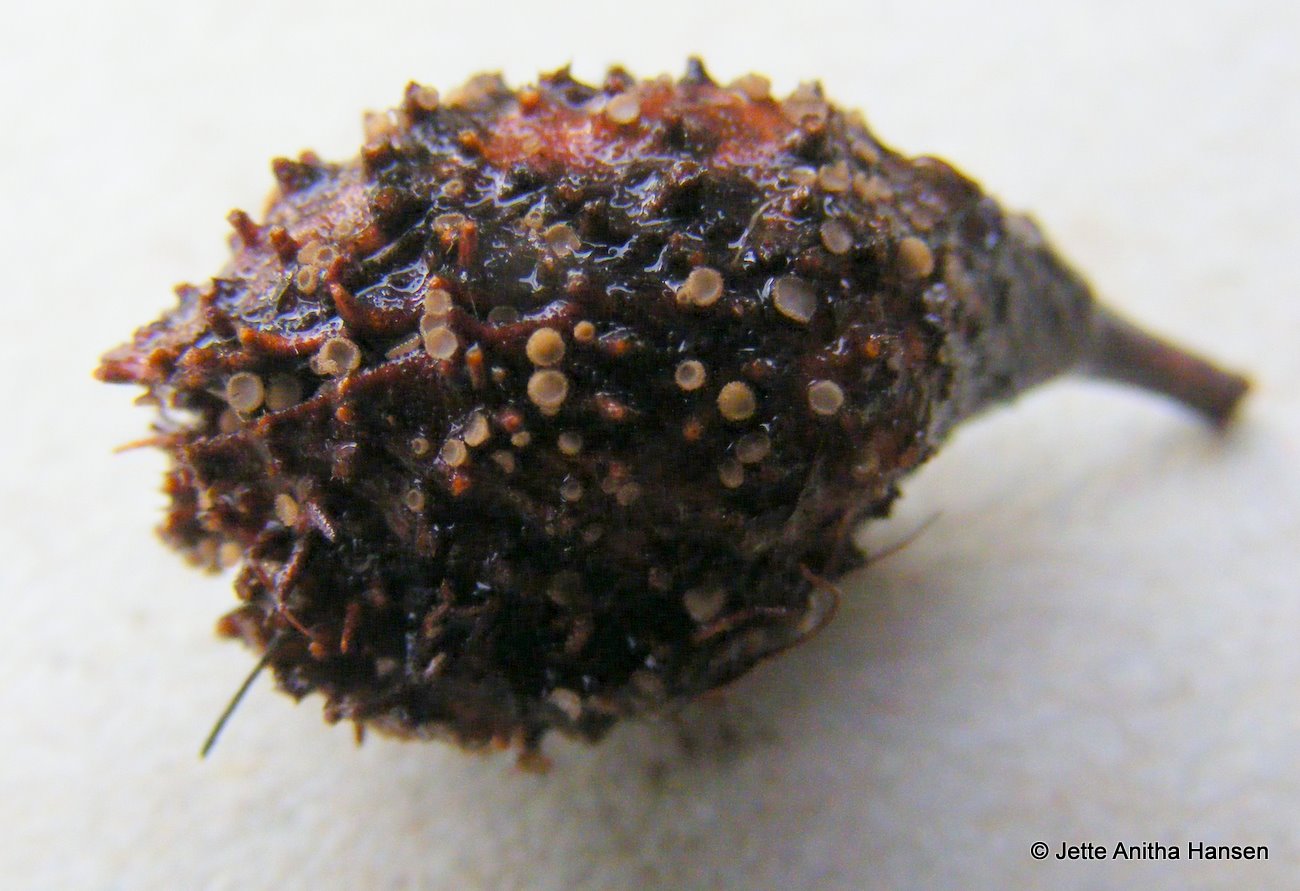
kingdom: Fungi
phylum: Ascomycota
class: Leotiomycetes
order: Helotiales
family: Lachnaceae
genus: Brunnipila
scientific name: Brunnipila fuscescens
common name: bøge-frynseskive
